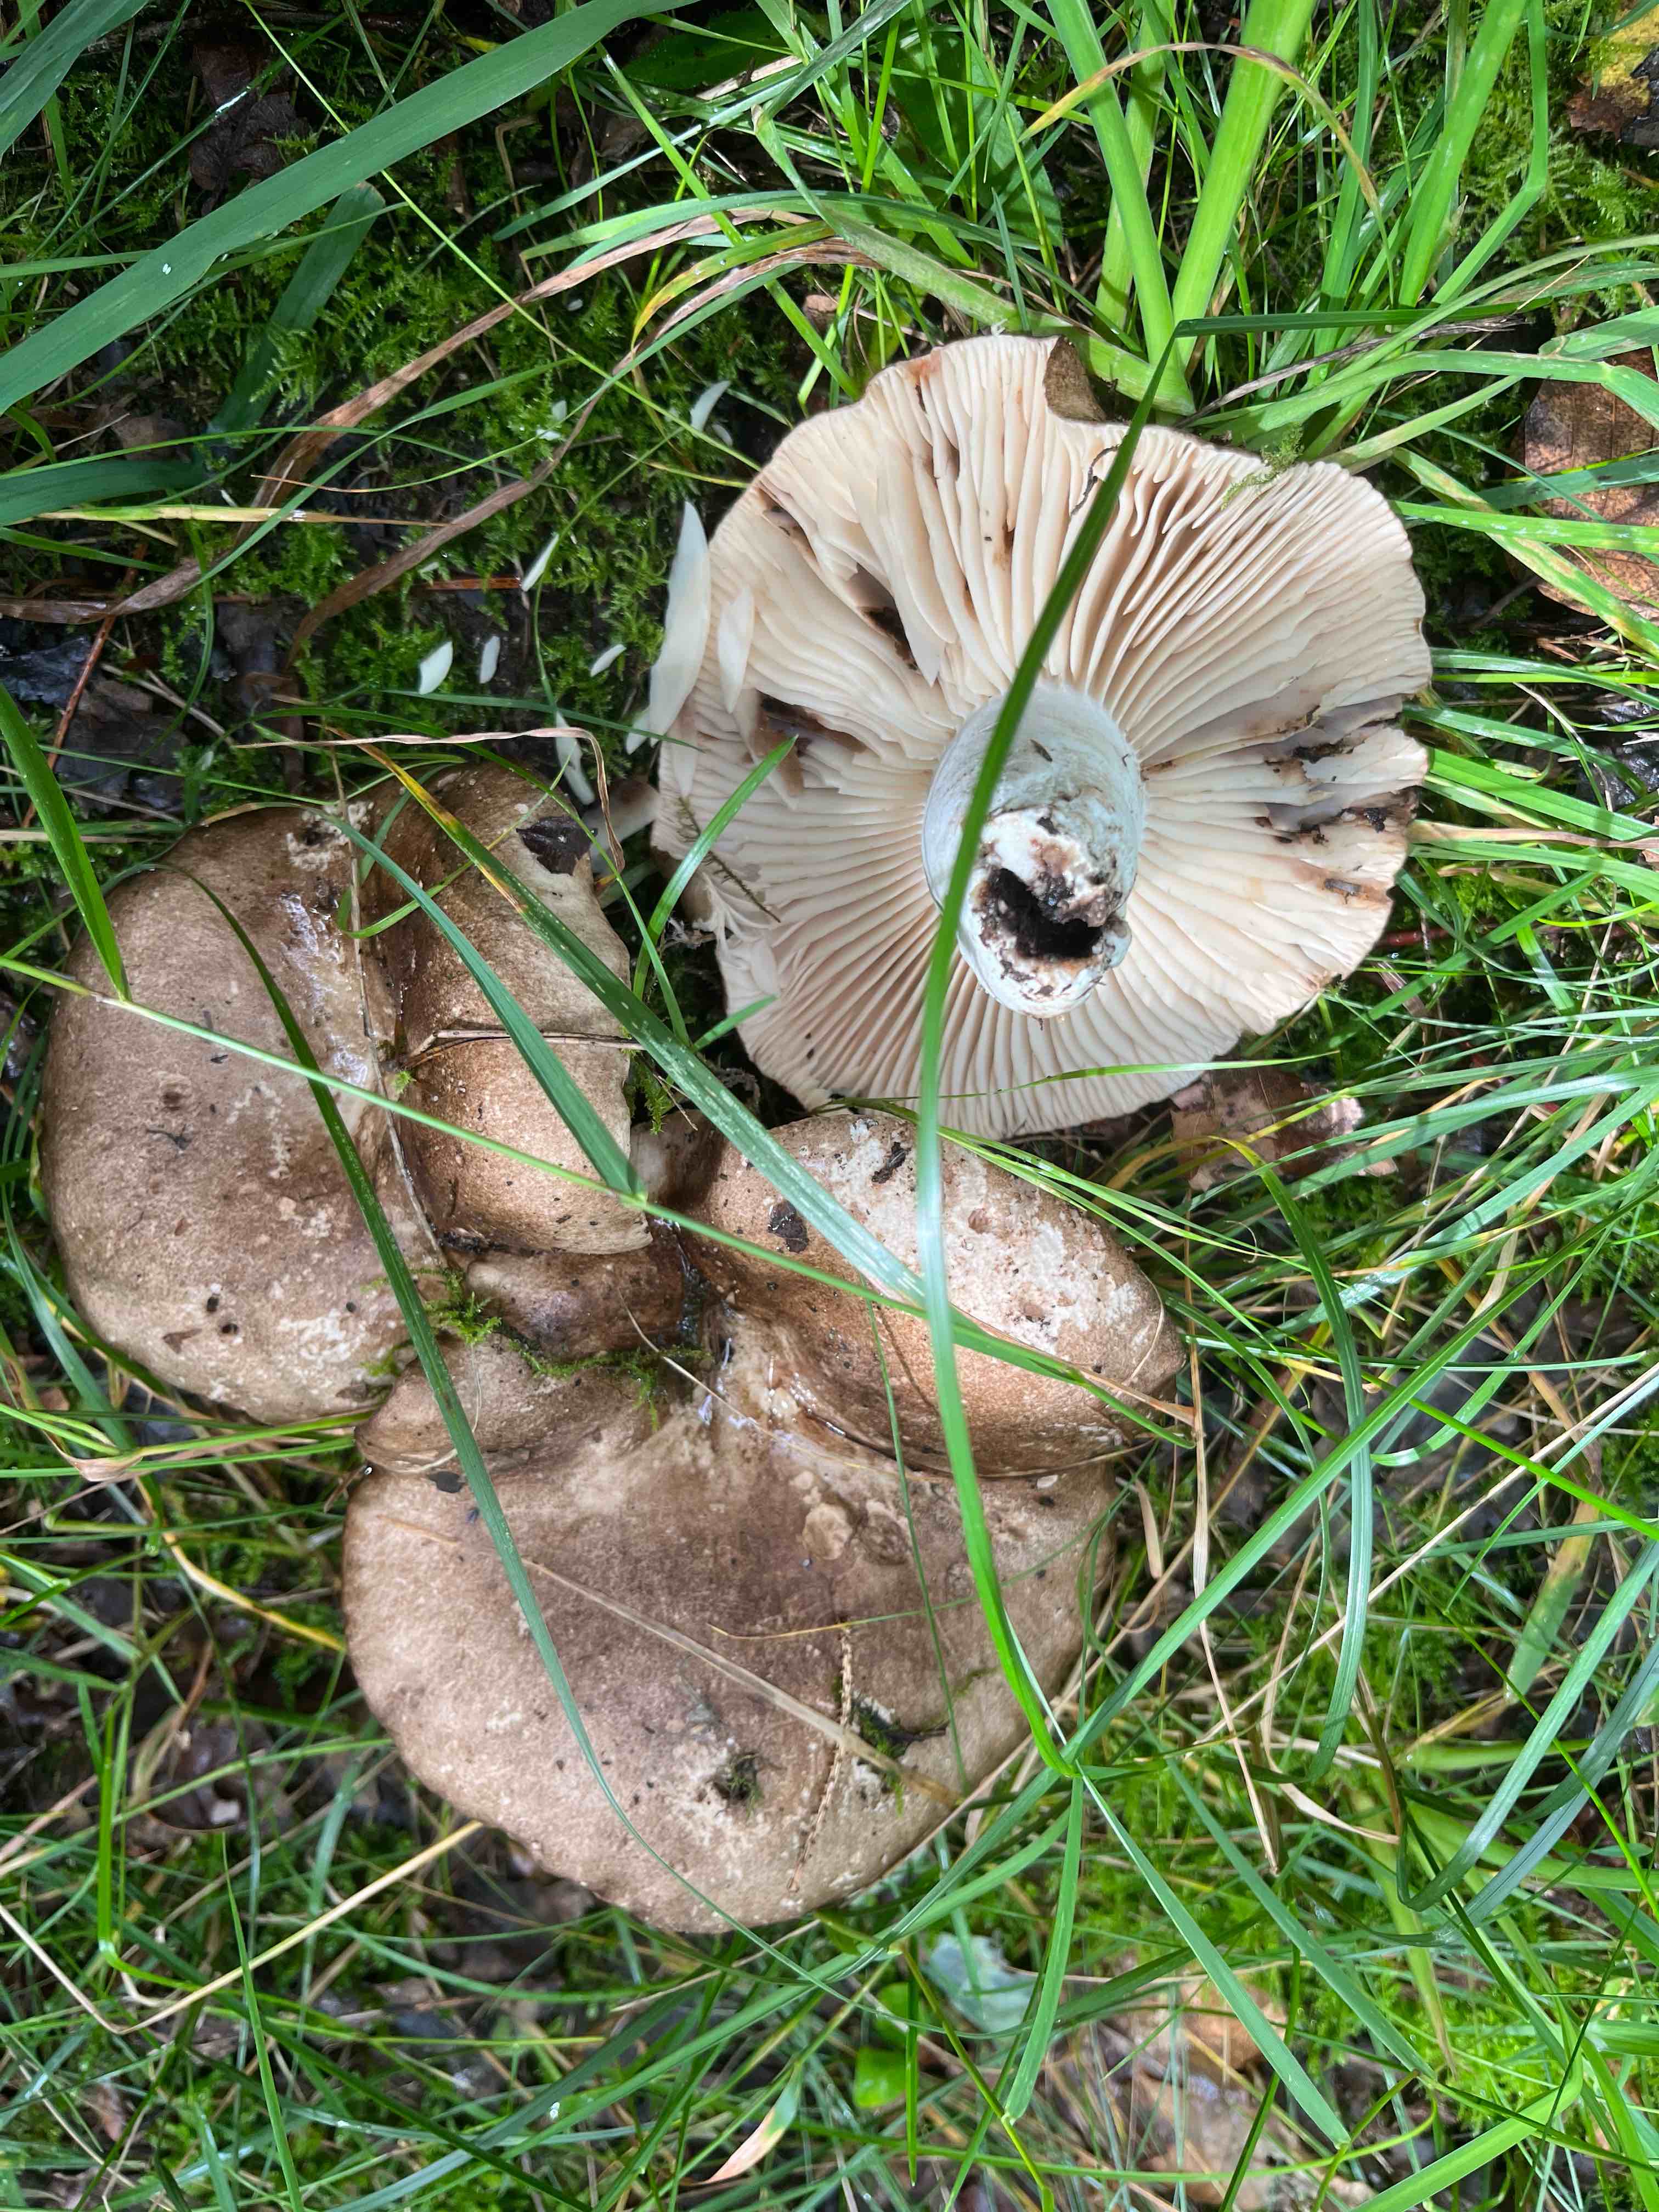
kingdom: Fungi
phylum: Basidiomycota
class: Agaricomycetes
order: Russulales
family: Russulaceae
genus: Russula
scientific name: Russula adusta
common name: sværtende skørhat
